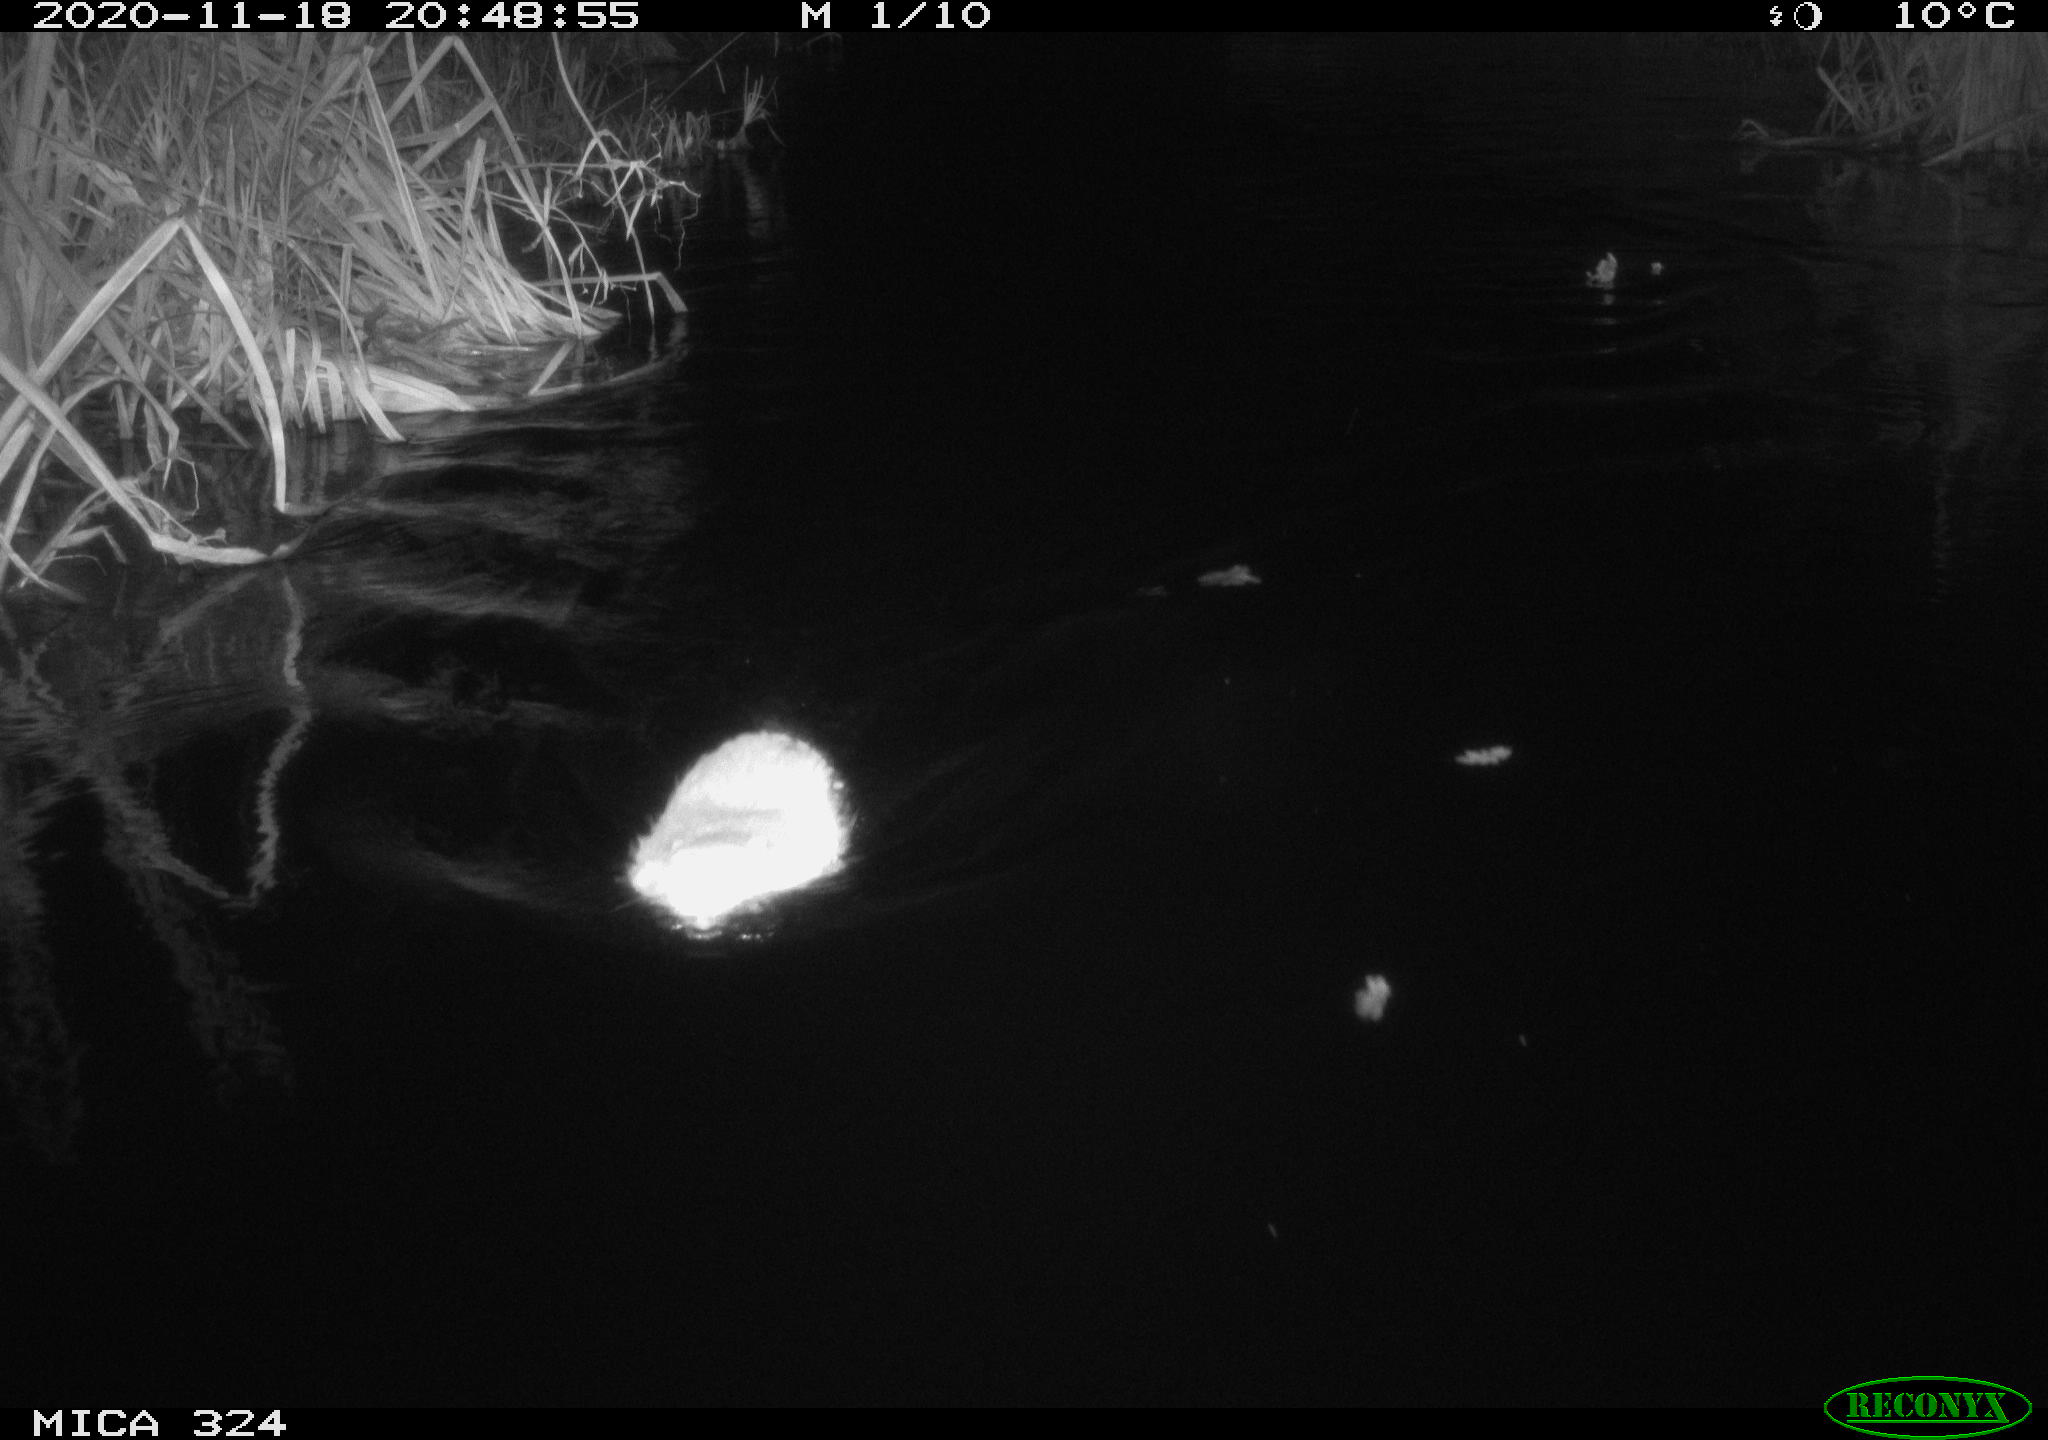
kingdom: Animalia
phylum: Chordata
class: Mammalia
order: Rodentia
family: Myocastoridae
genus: Myocastor
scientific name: Myocastor coypus
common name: Coypu
